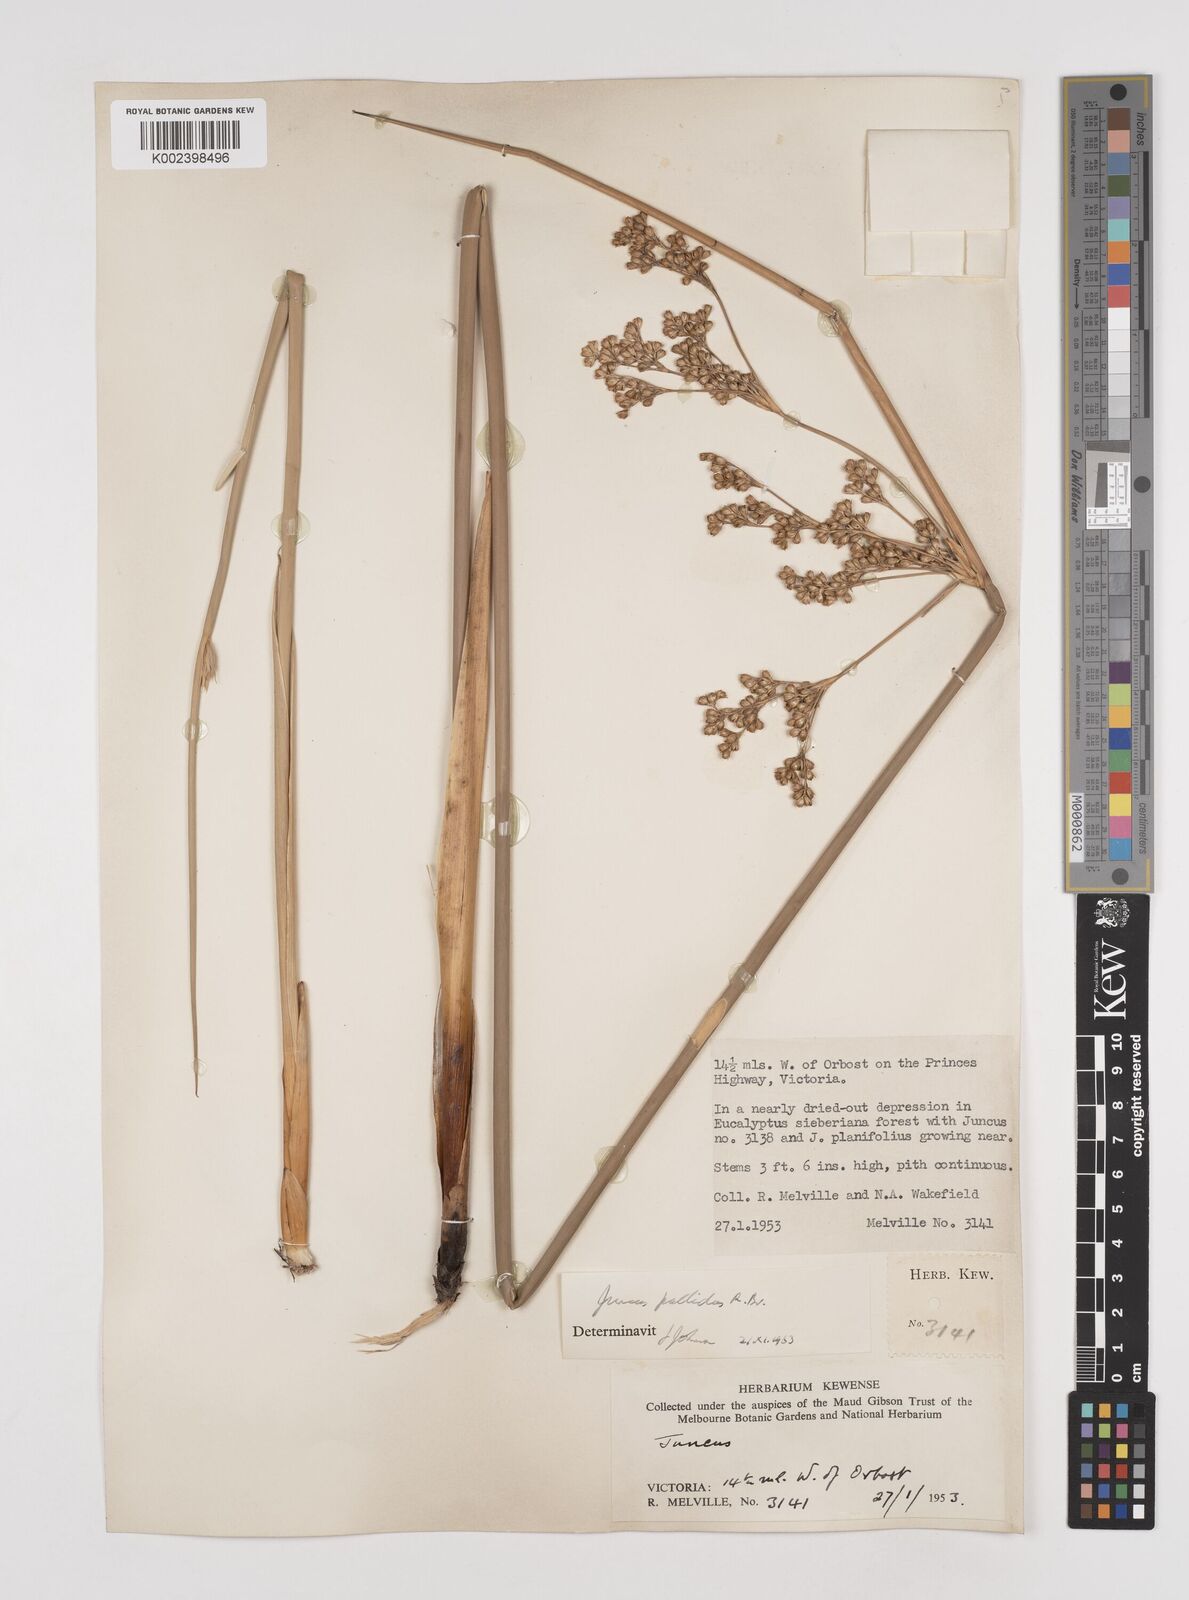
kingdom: Plantae
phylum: Tracheophyta
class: Liliopsida
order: Poales
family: Juncaceae
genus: Juncus
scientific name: Juncus pallidus
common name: Great soft-rush
